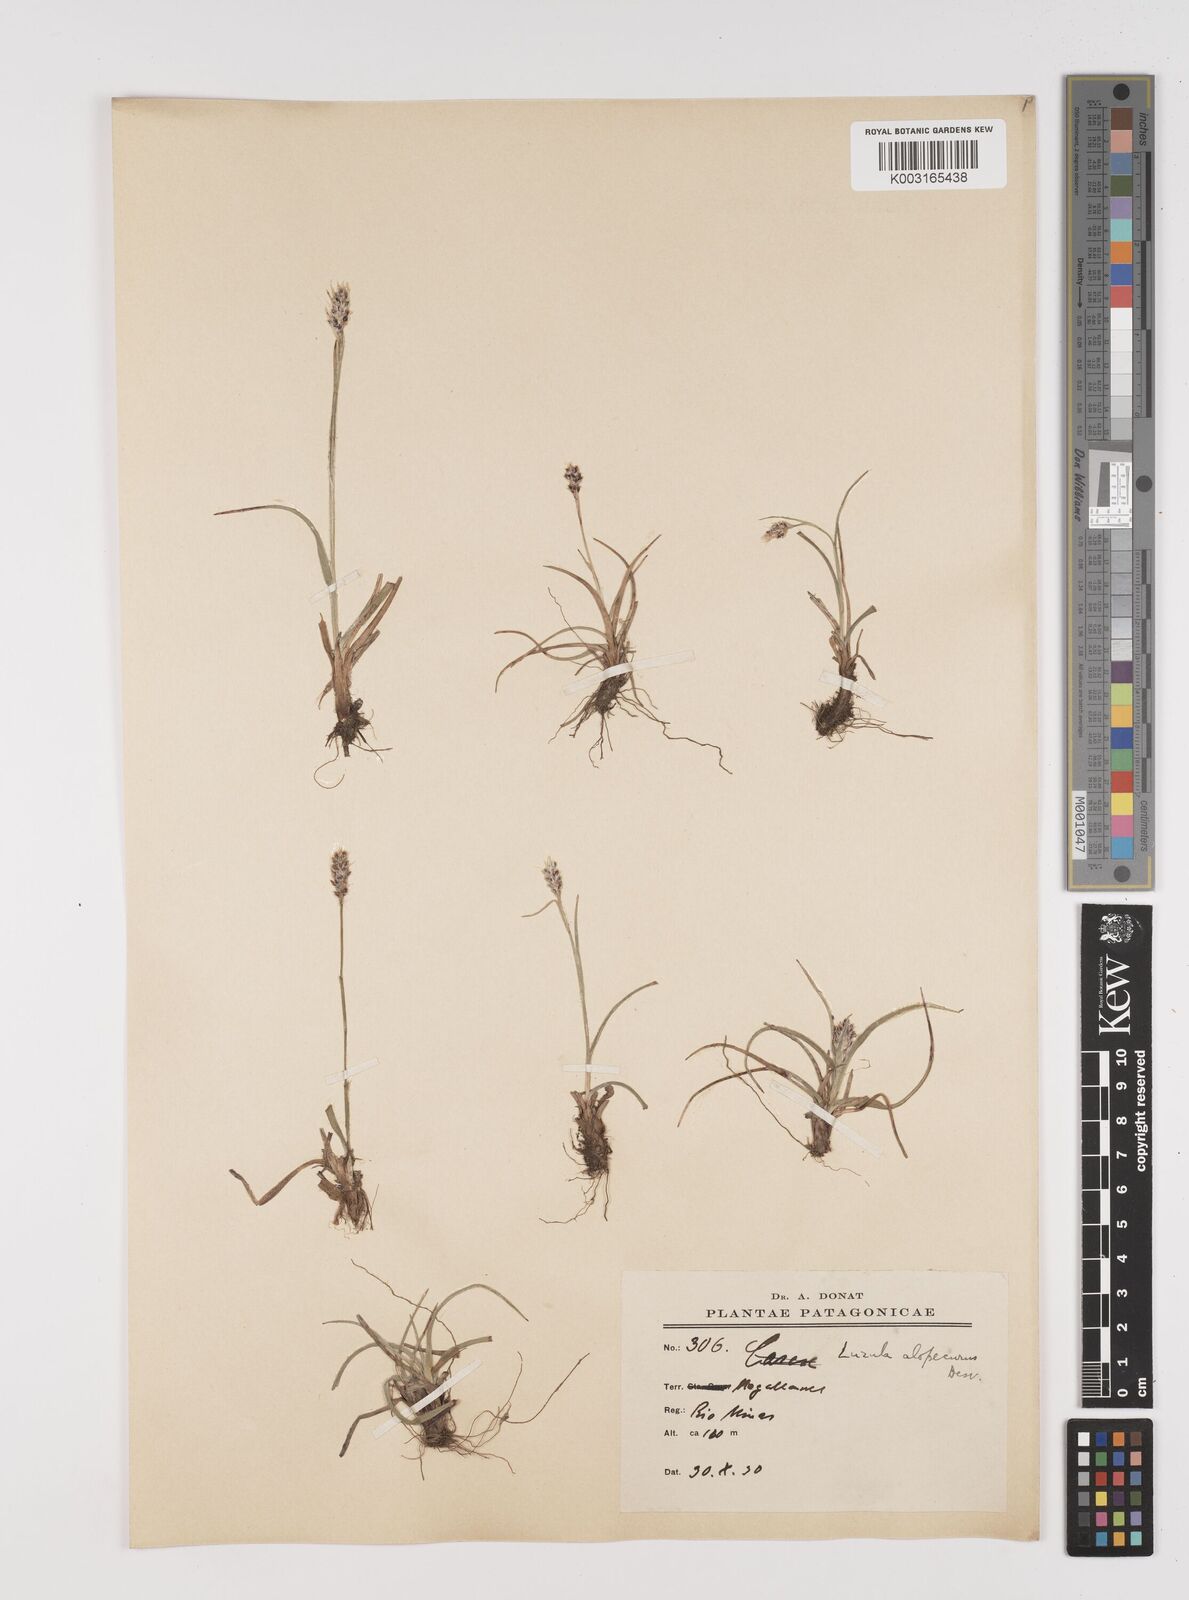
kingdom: Plantae
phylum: Tracheophyta
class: Liliopsida
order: Poales
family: Juncaceae
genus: Luzula
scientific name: Luzula antarctica
